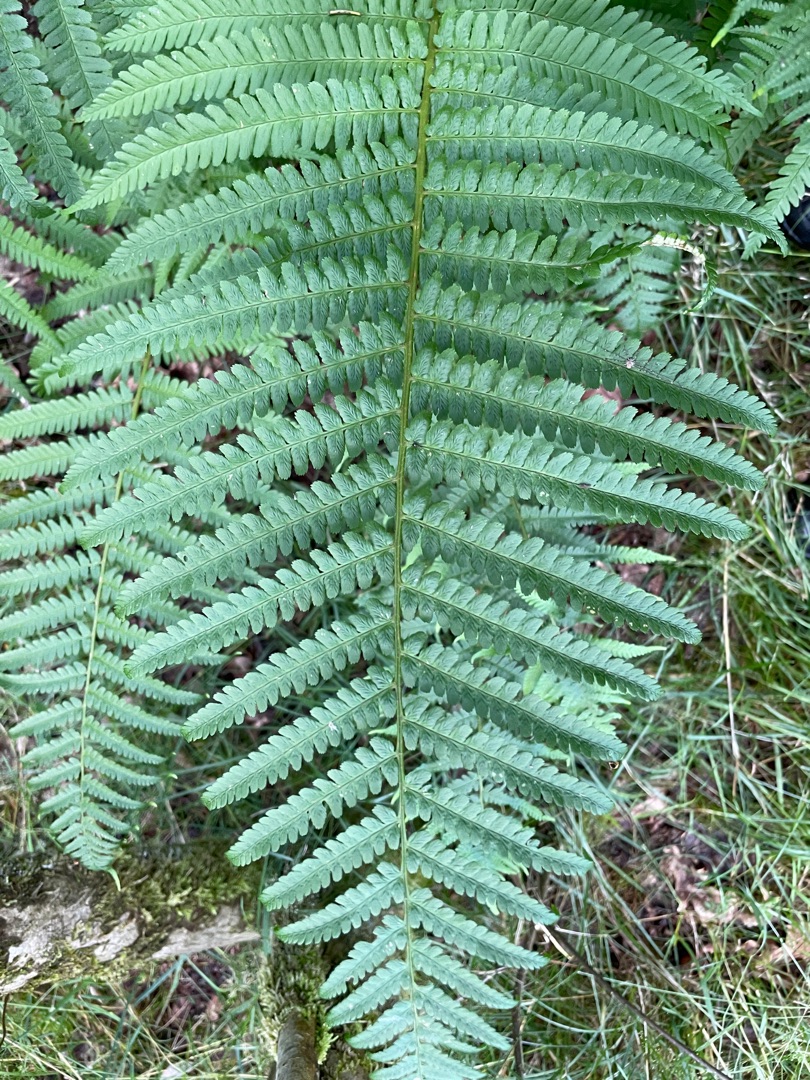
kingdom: Plantae
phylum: Tracheophyta
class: Polypodiopsida
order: Polypodiales
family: Dryopteridaceae
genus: Dryopteris
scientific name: Dryopteris filix-mas
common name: Almindelig mangeløv
